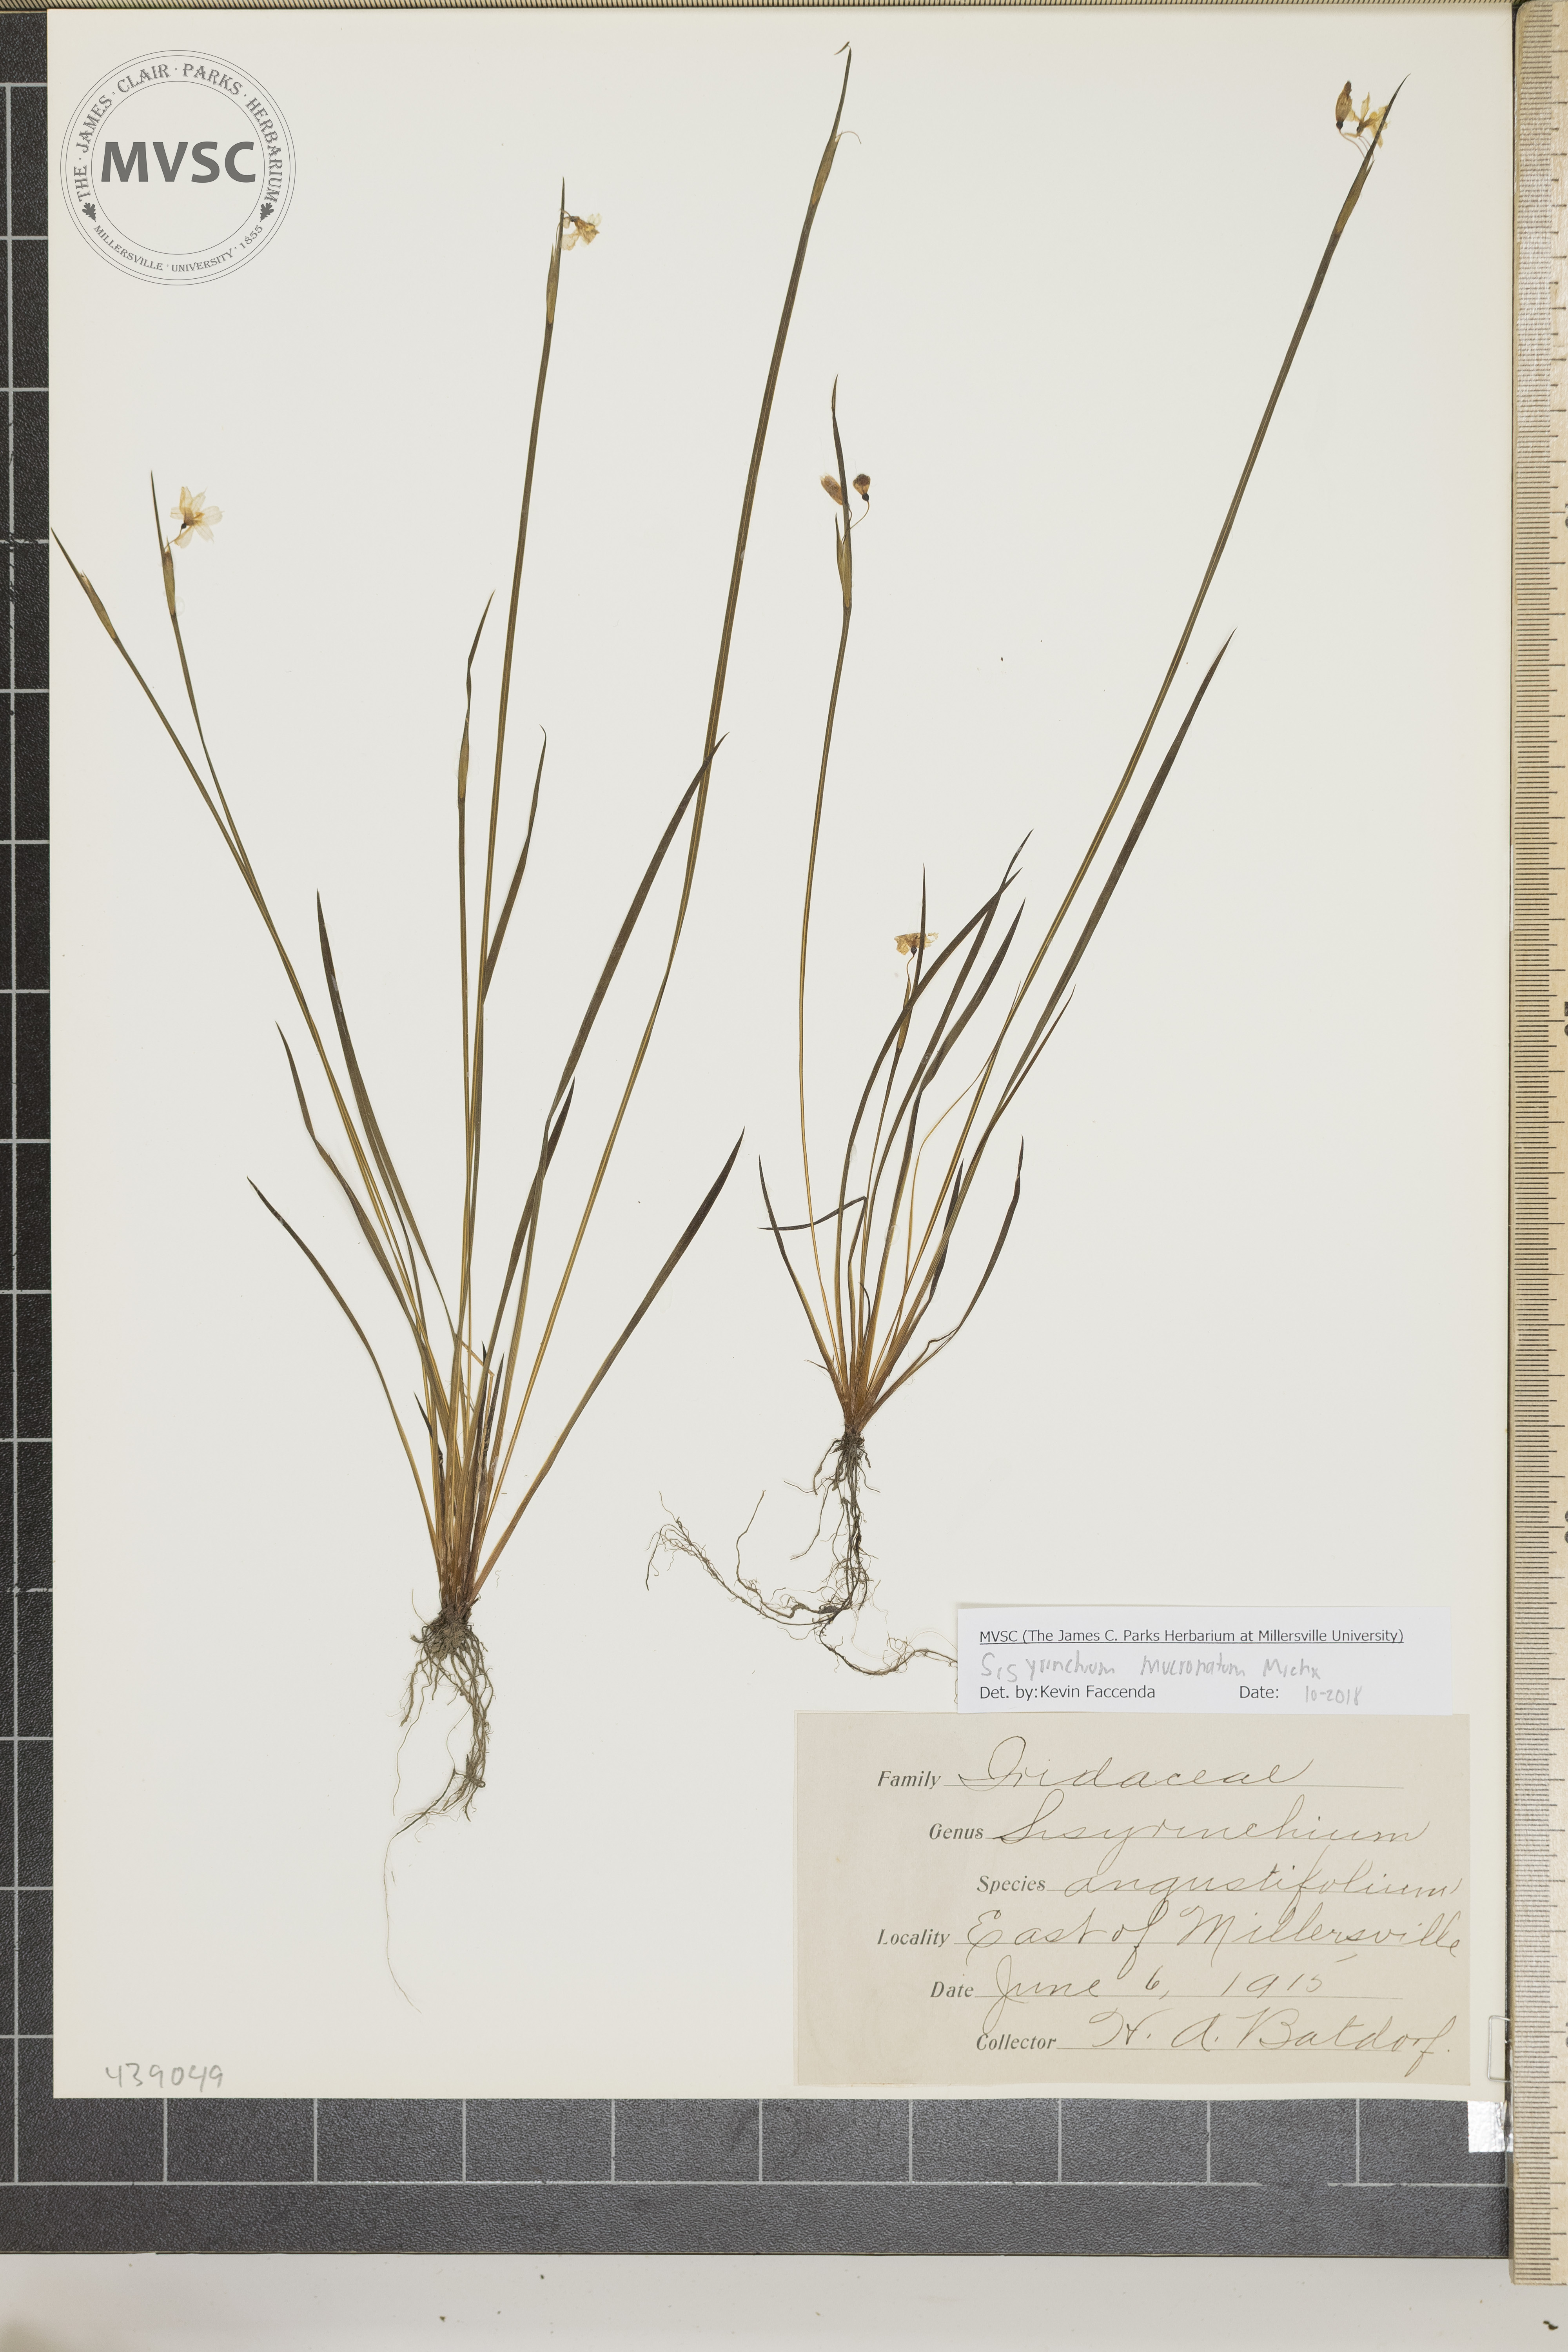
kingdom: Plantae
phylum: Tracheophyta
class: Liliopsida
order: Asparagales
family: Iridaceae
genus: Sisyrinchium
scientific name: Sisyrinchium mucronatum
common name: Eastern blue-eyed-grass
